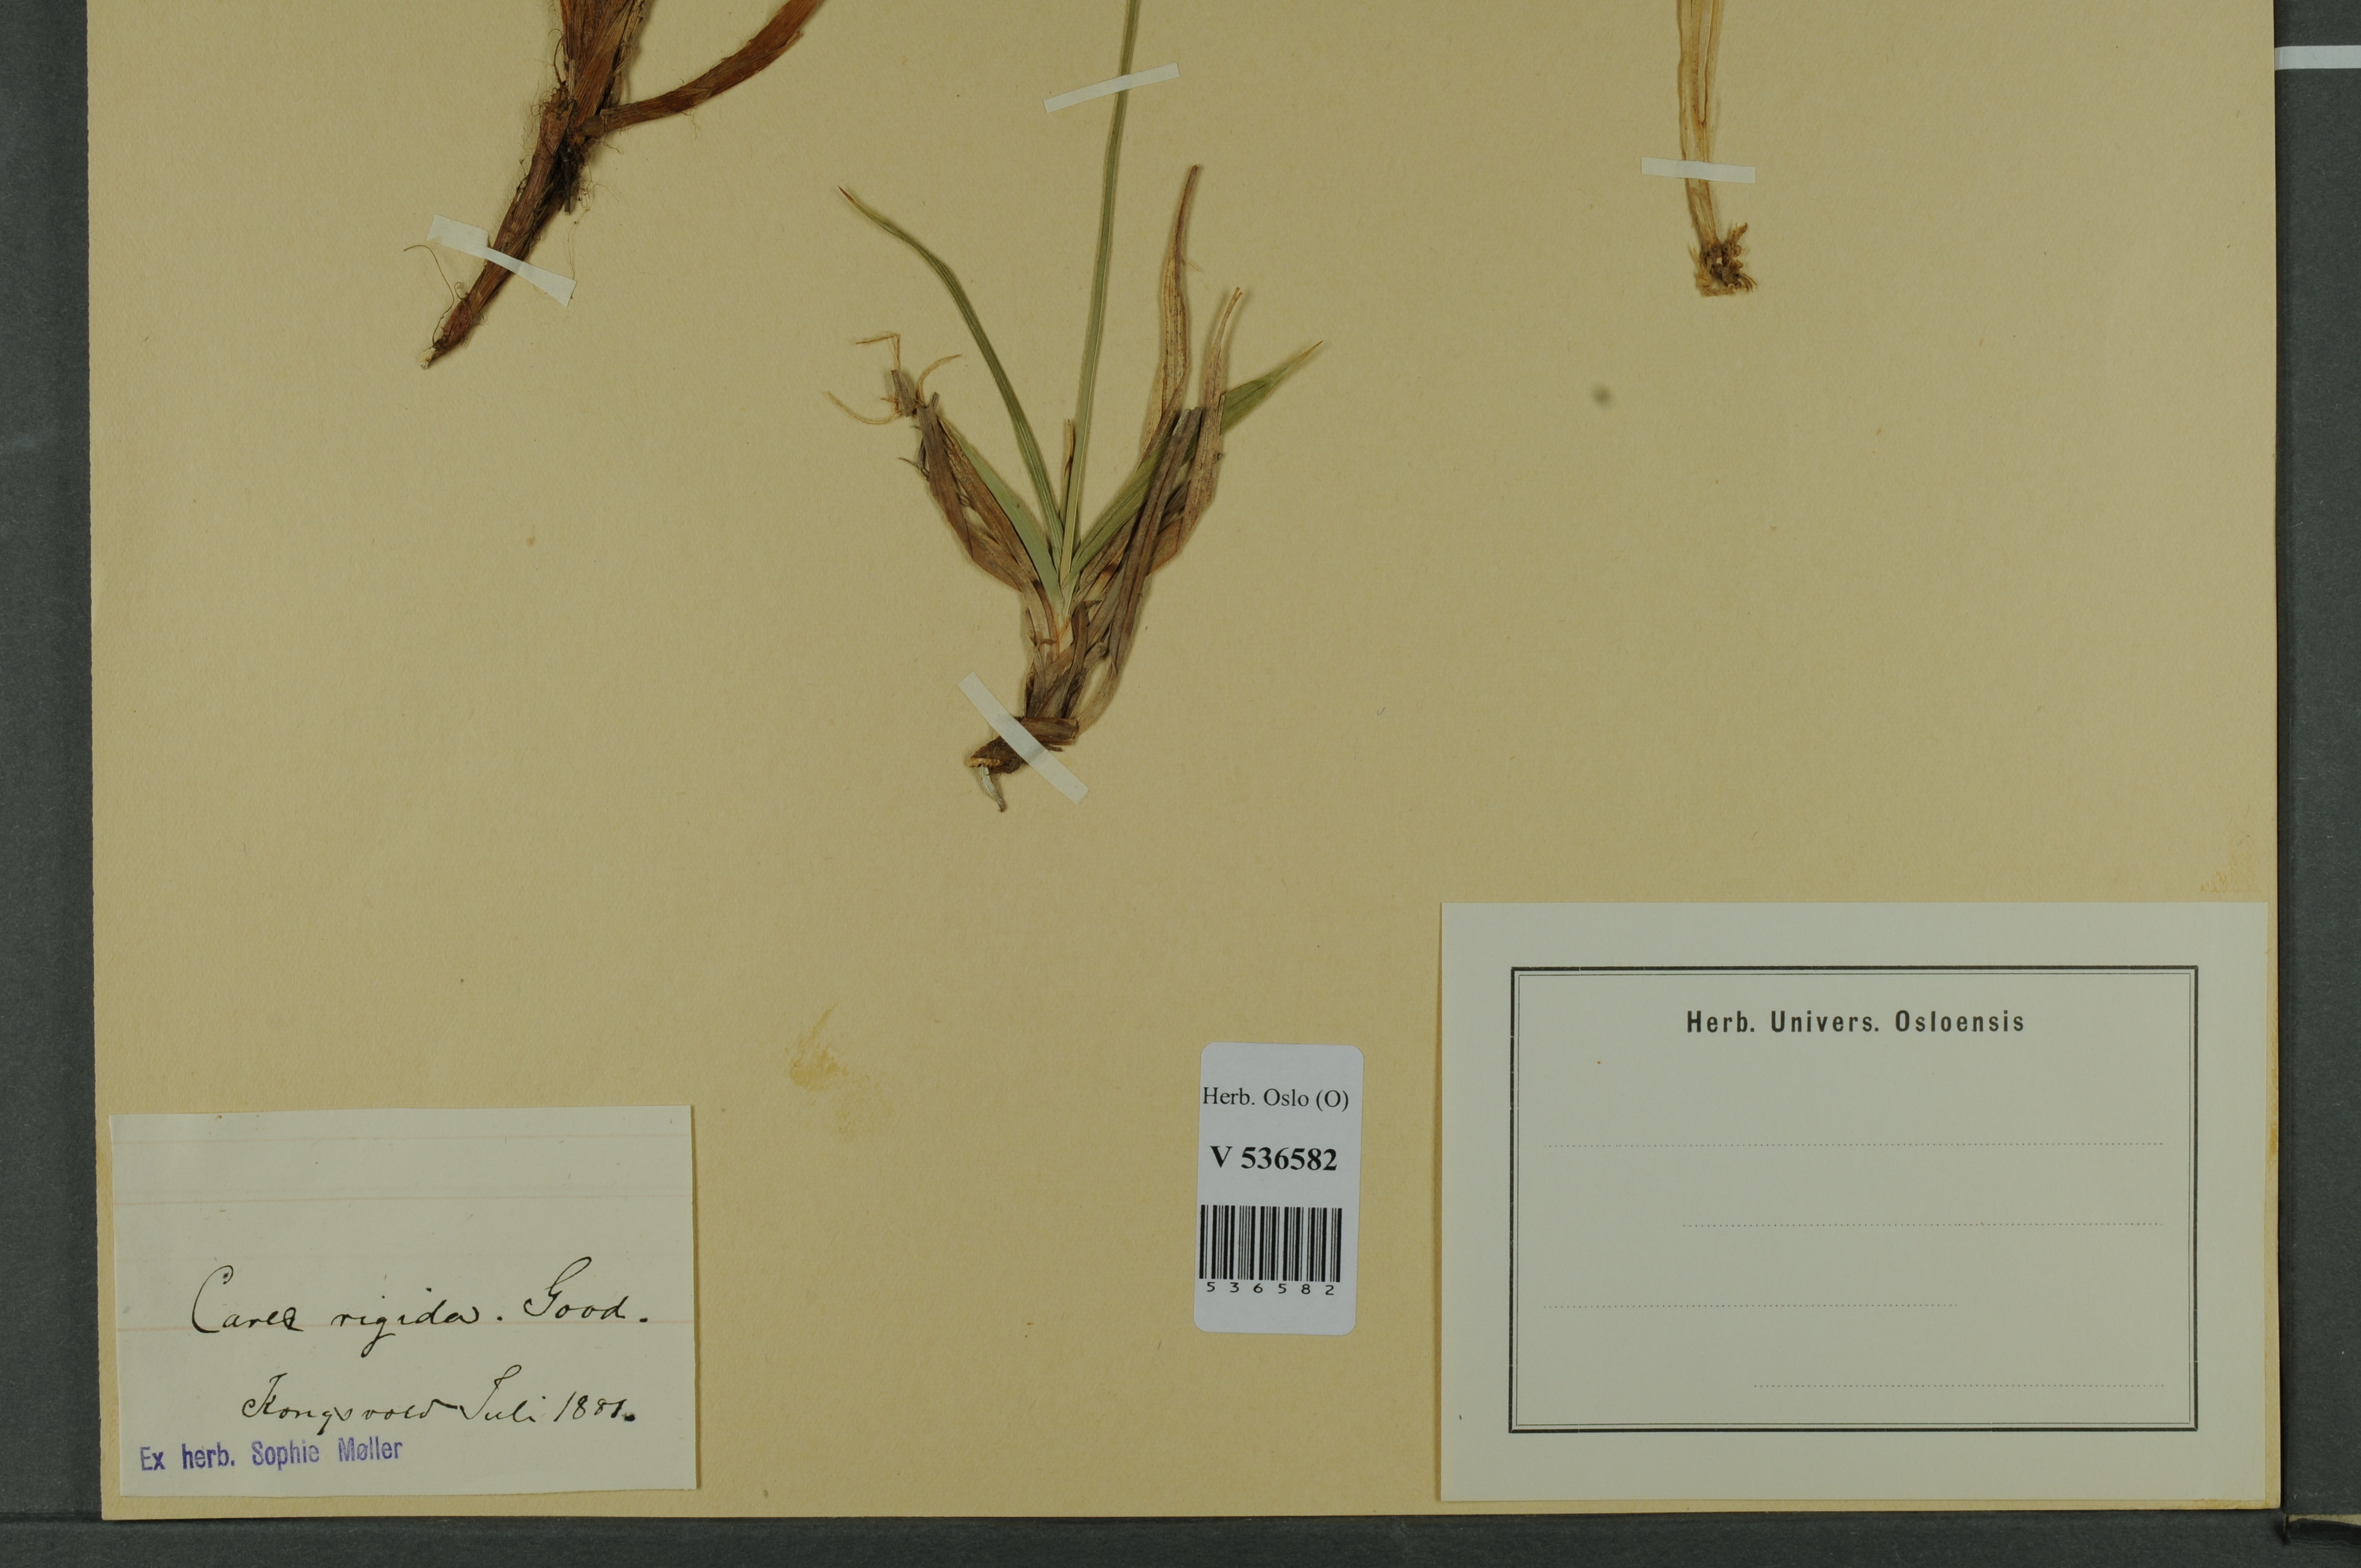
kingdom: Plantae
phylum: Tracheophyta
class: Liliopsida
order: Poales
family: Cyperaceae
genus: Carex
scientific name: Carex dacica
